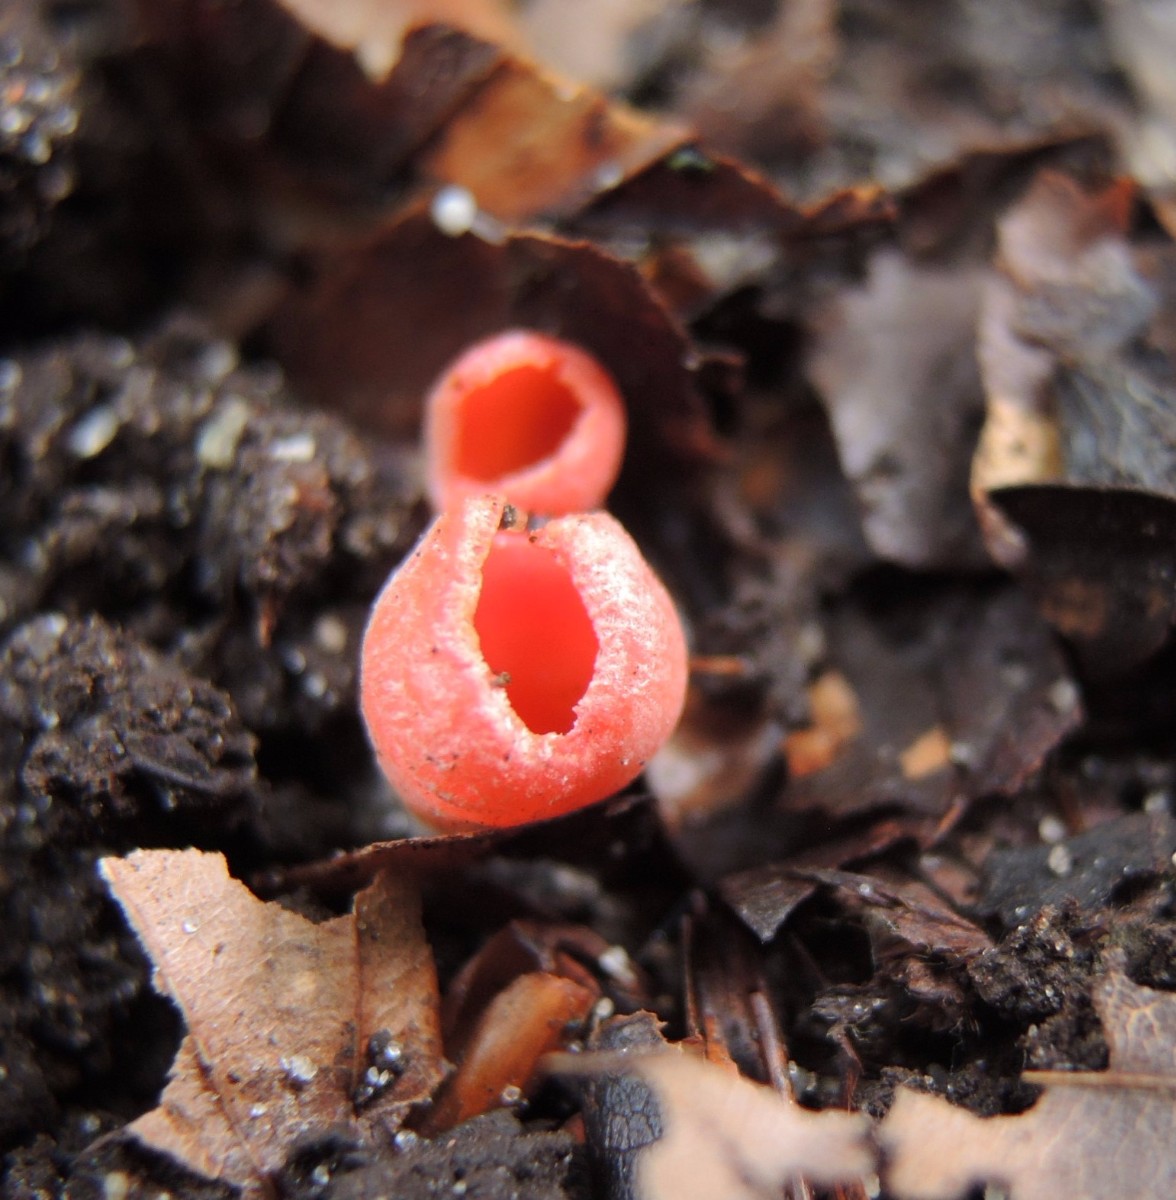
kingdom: Fungi
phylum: Ascomycota
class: Pezizomycetes
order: Pezizales
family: Sarcoscyphaceae
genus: Sarcoscypha
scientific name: Sarcoscypha coccinea
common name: skarlagen-pragtbæger
